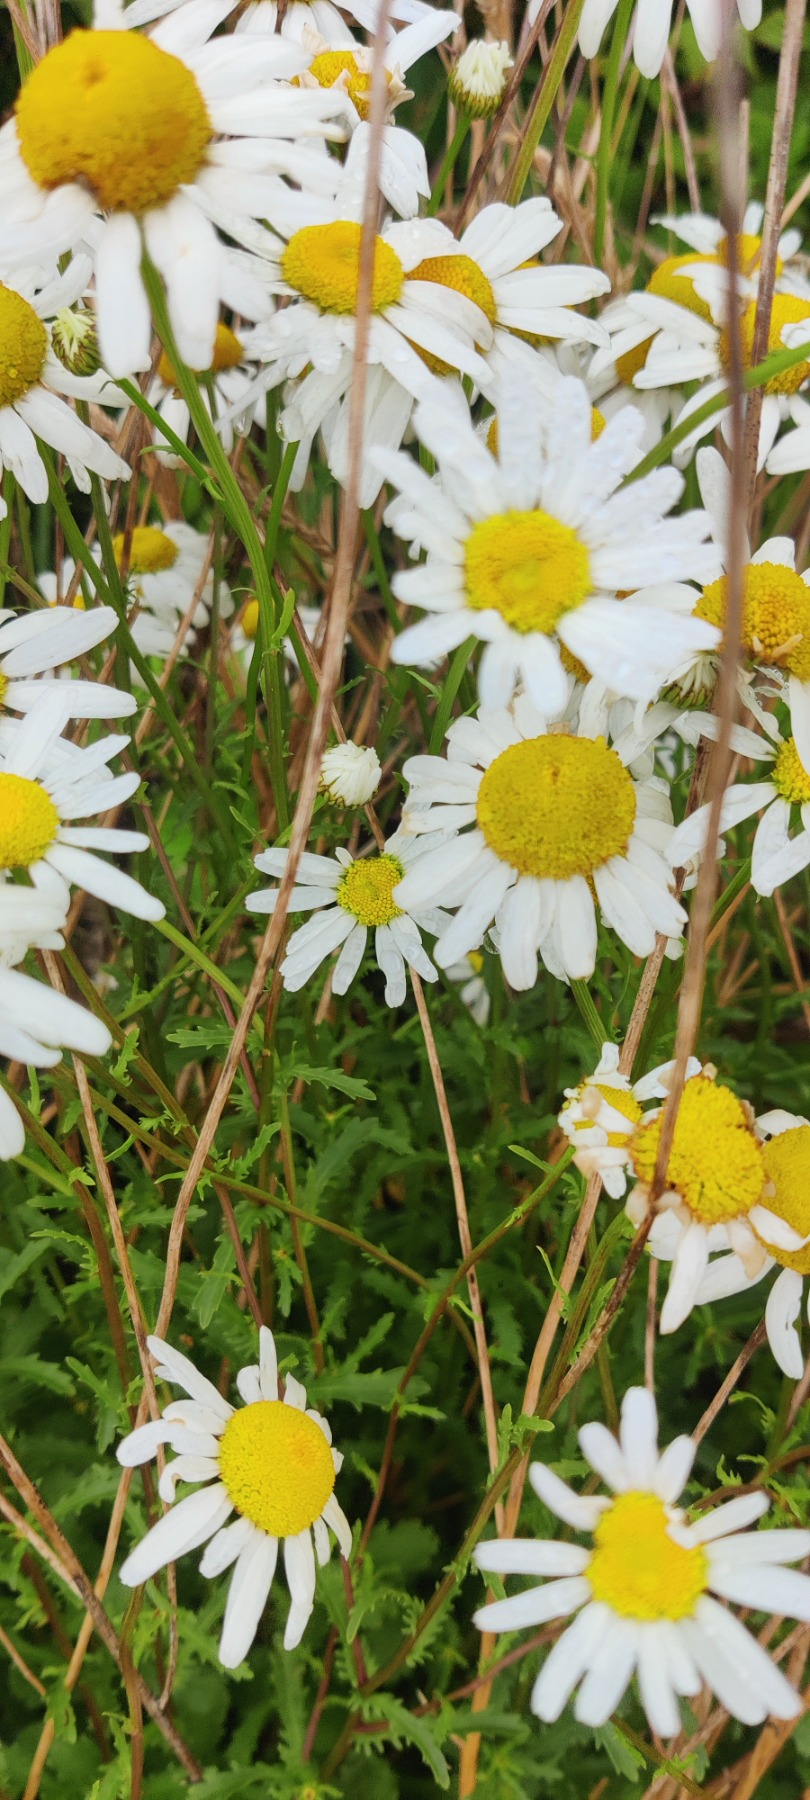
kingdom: Plantae
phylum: Tracheophyta
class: Magnoliopsida
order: Asterales
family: Asteraceae
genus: Leucanthemum
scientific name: Leucanthemum vulgare
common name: Hvid okseøje
